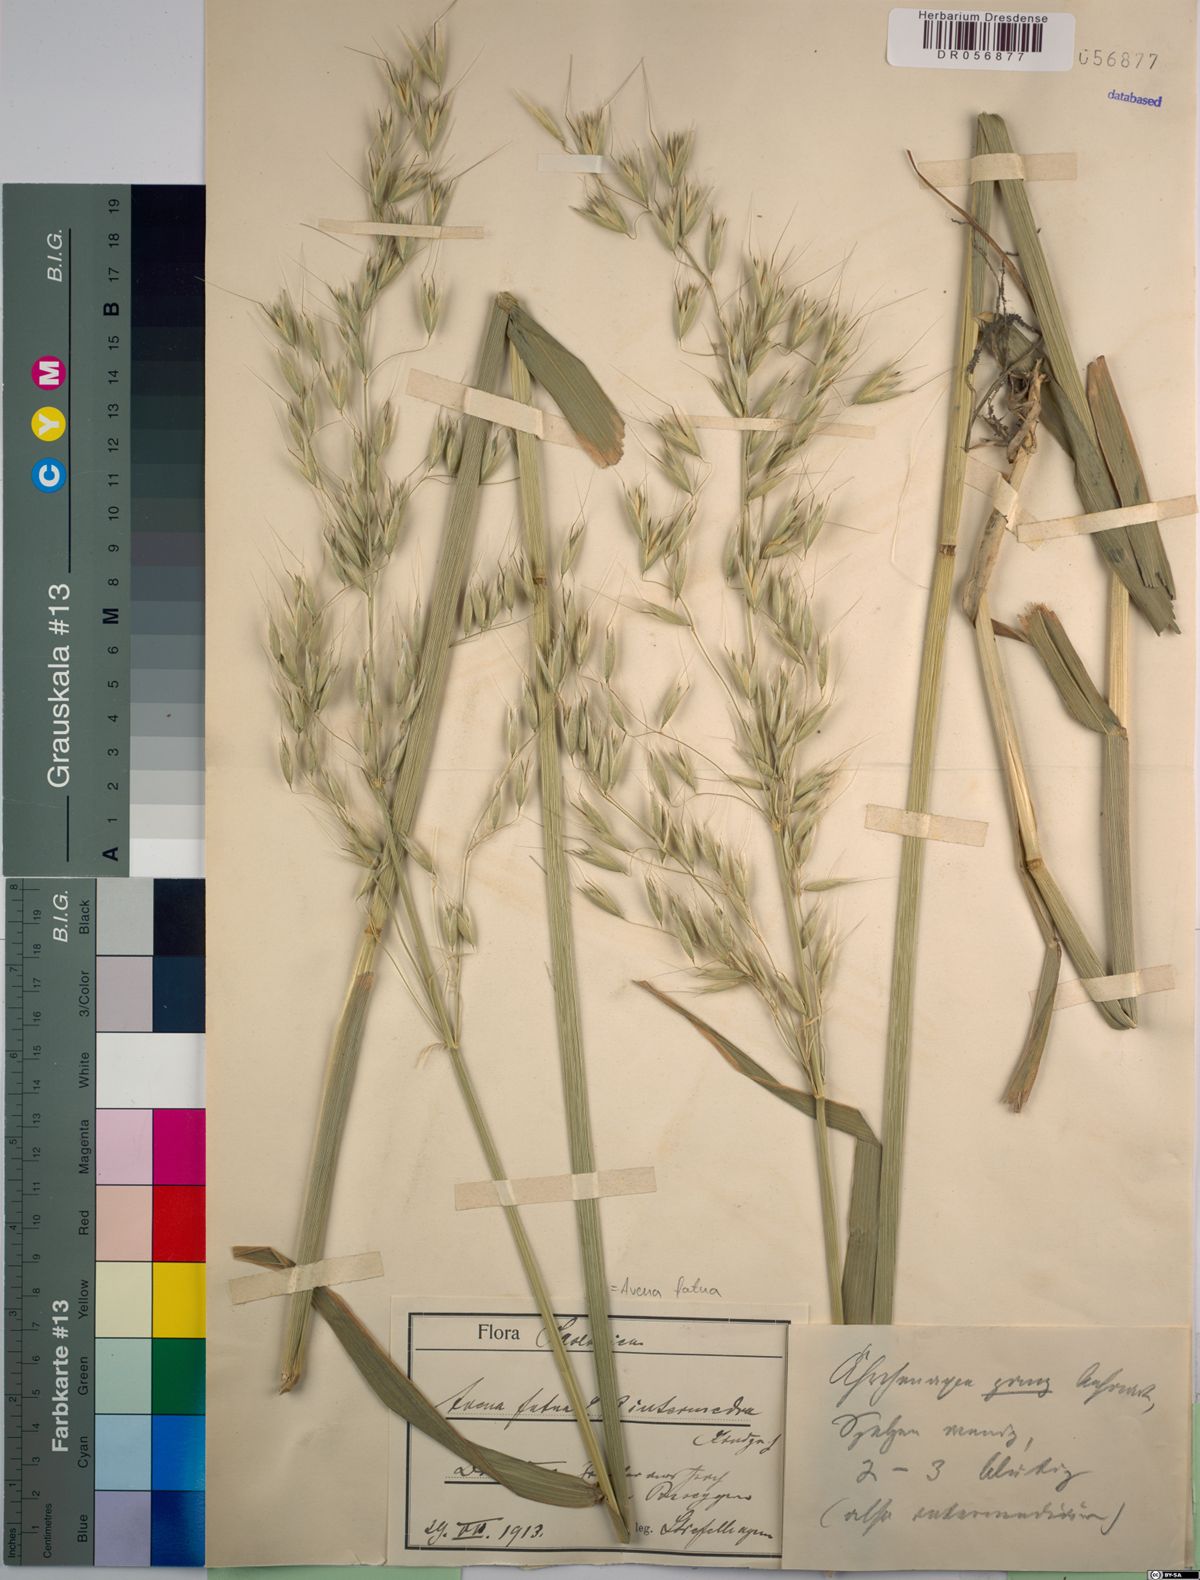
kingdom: Plantae
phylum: Tracheophyta
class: Liliopsida
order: Poales
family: Poaceae
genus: Avena
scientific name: Avena fatua
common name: Wild oat
